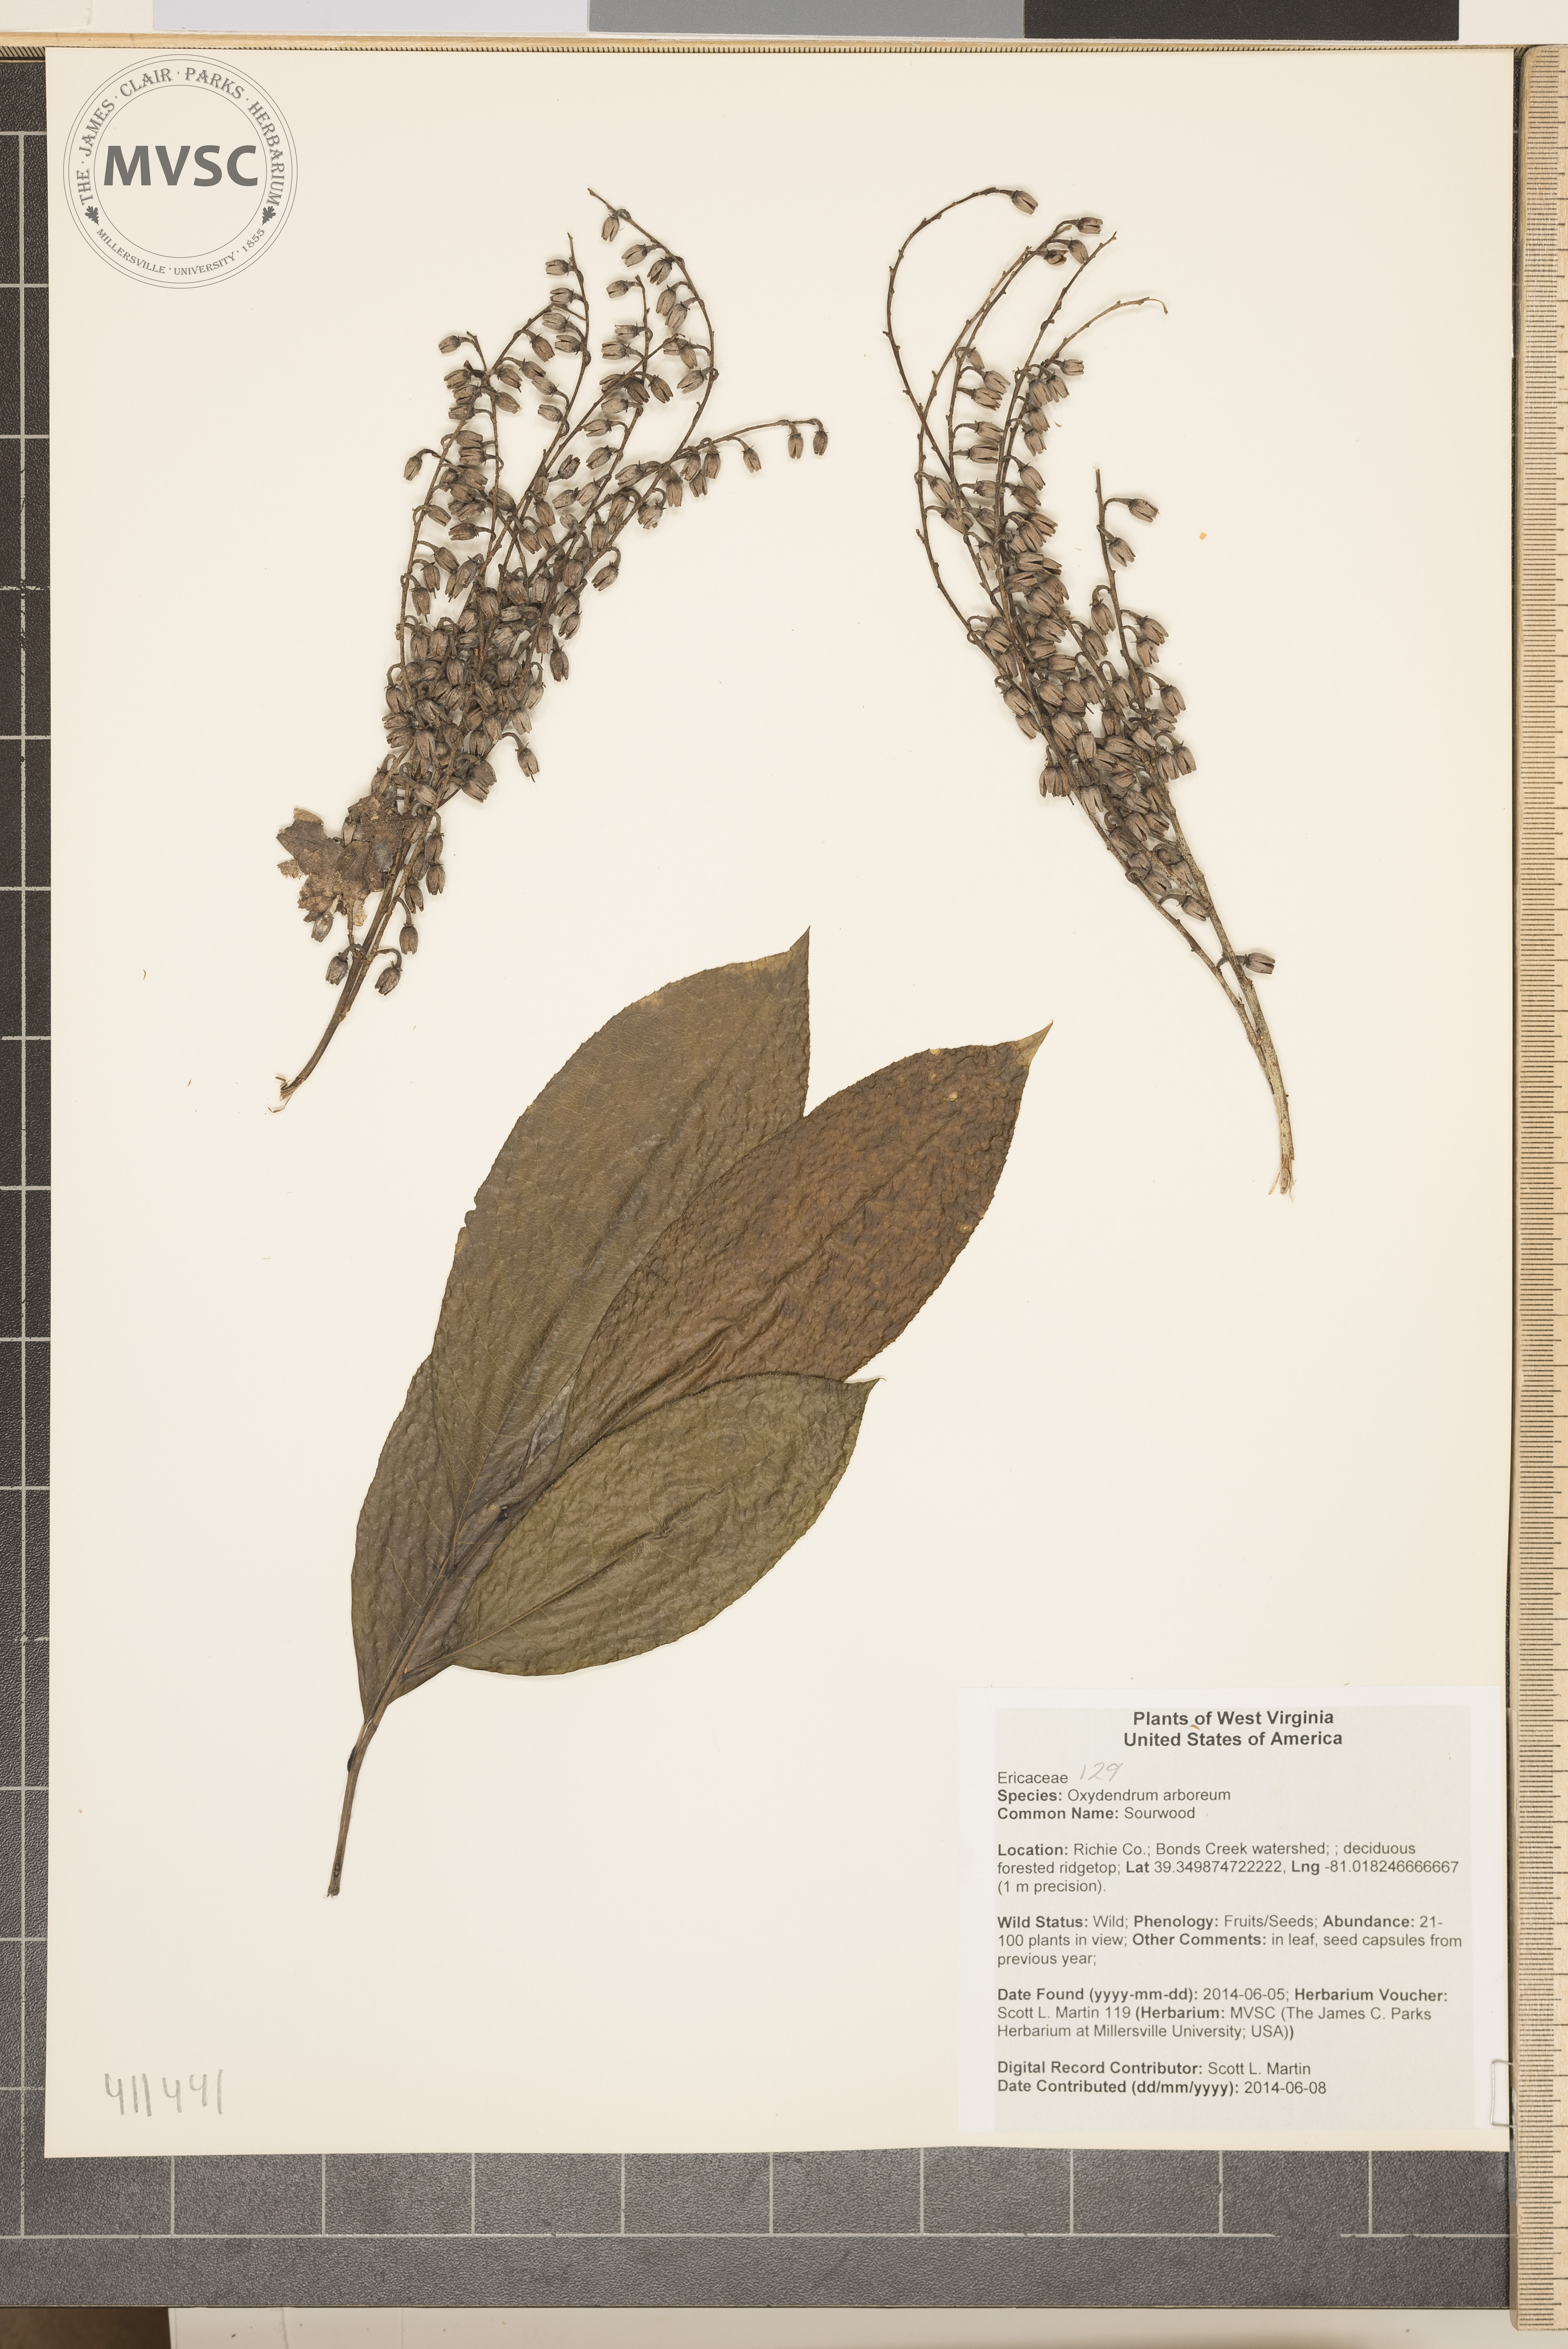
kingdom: Plantae
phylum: Tracheophyta
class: Magnoliopsida
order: Ericales
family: Ericaceae
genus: Oxydendrum
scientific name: Oxydendrum arboreum
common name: Sourwood
